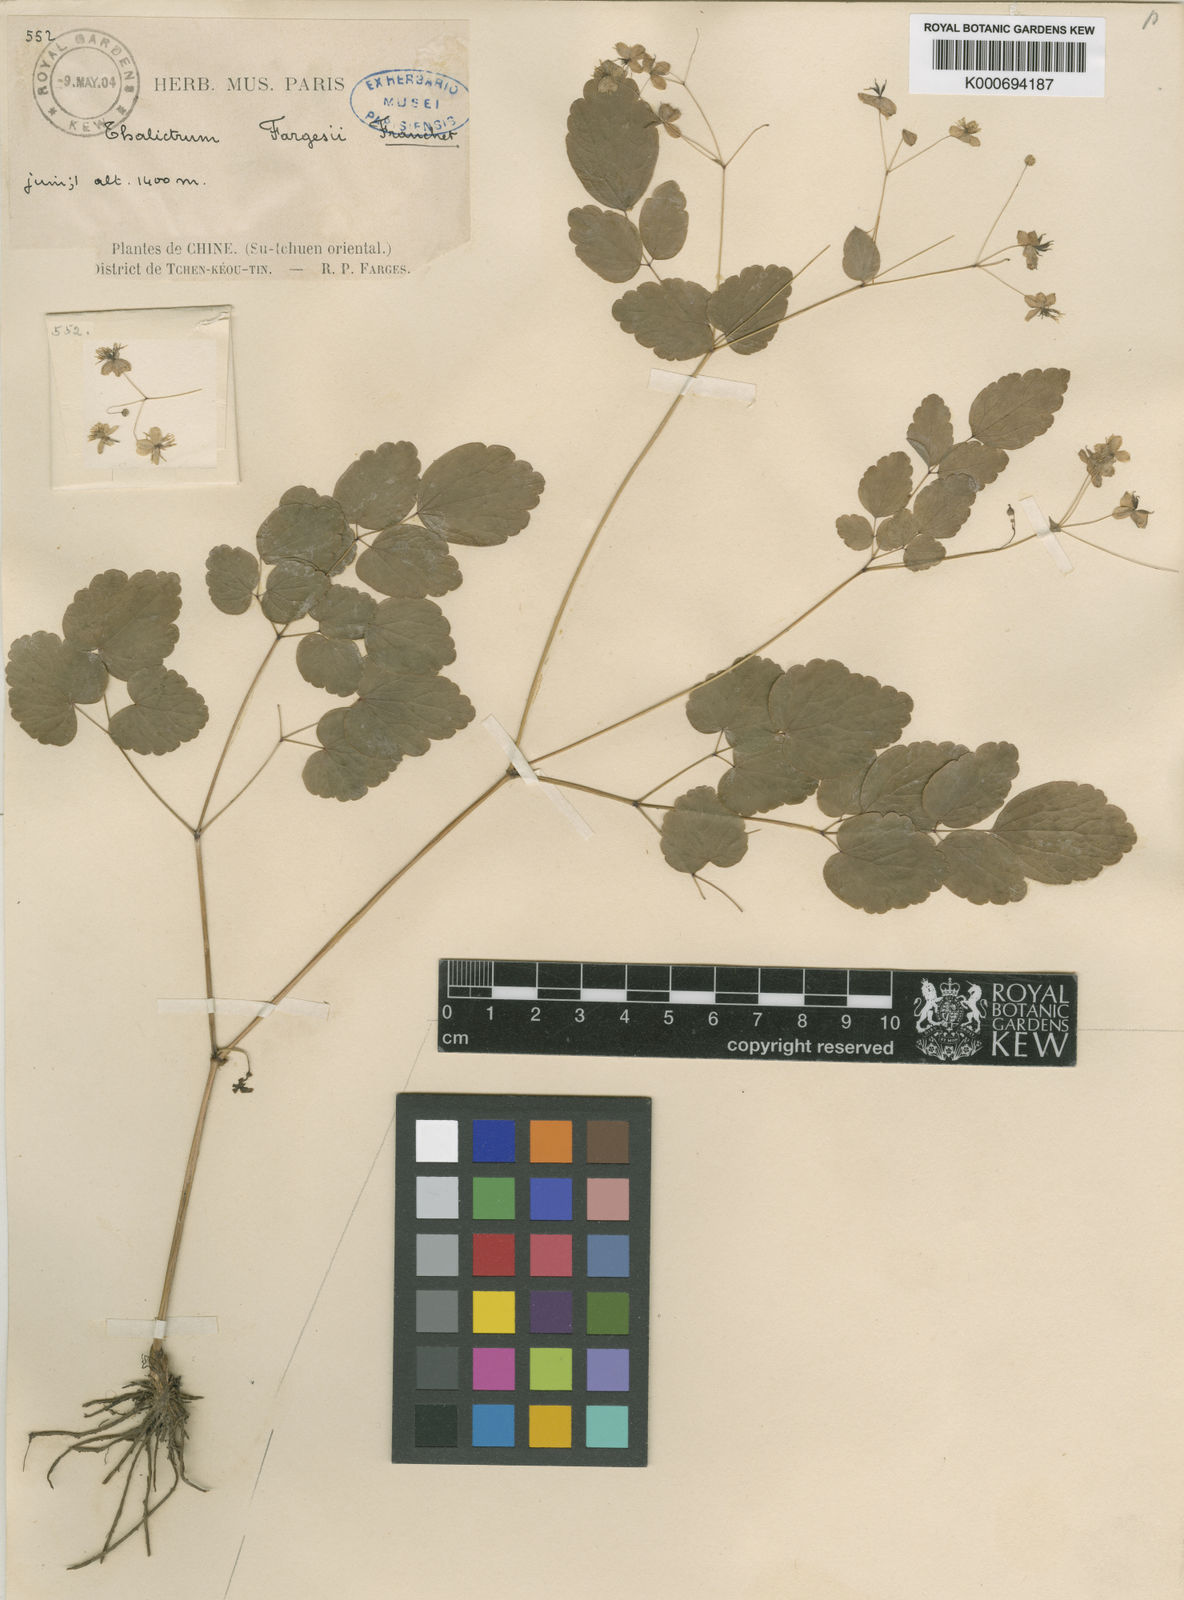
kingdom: Plantae
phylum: Tracheophyta
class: Magnoliopsida
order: Ranunculales
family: Ranunculaceae
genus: Thalictrum
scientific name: Thalictrum fargesii
